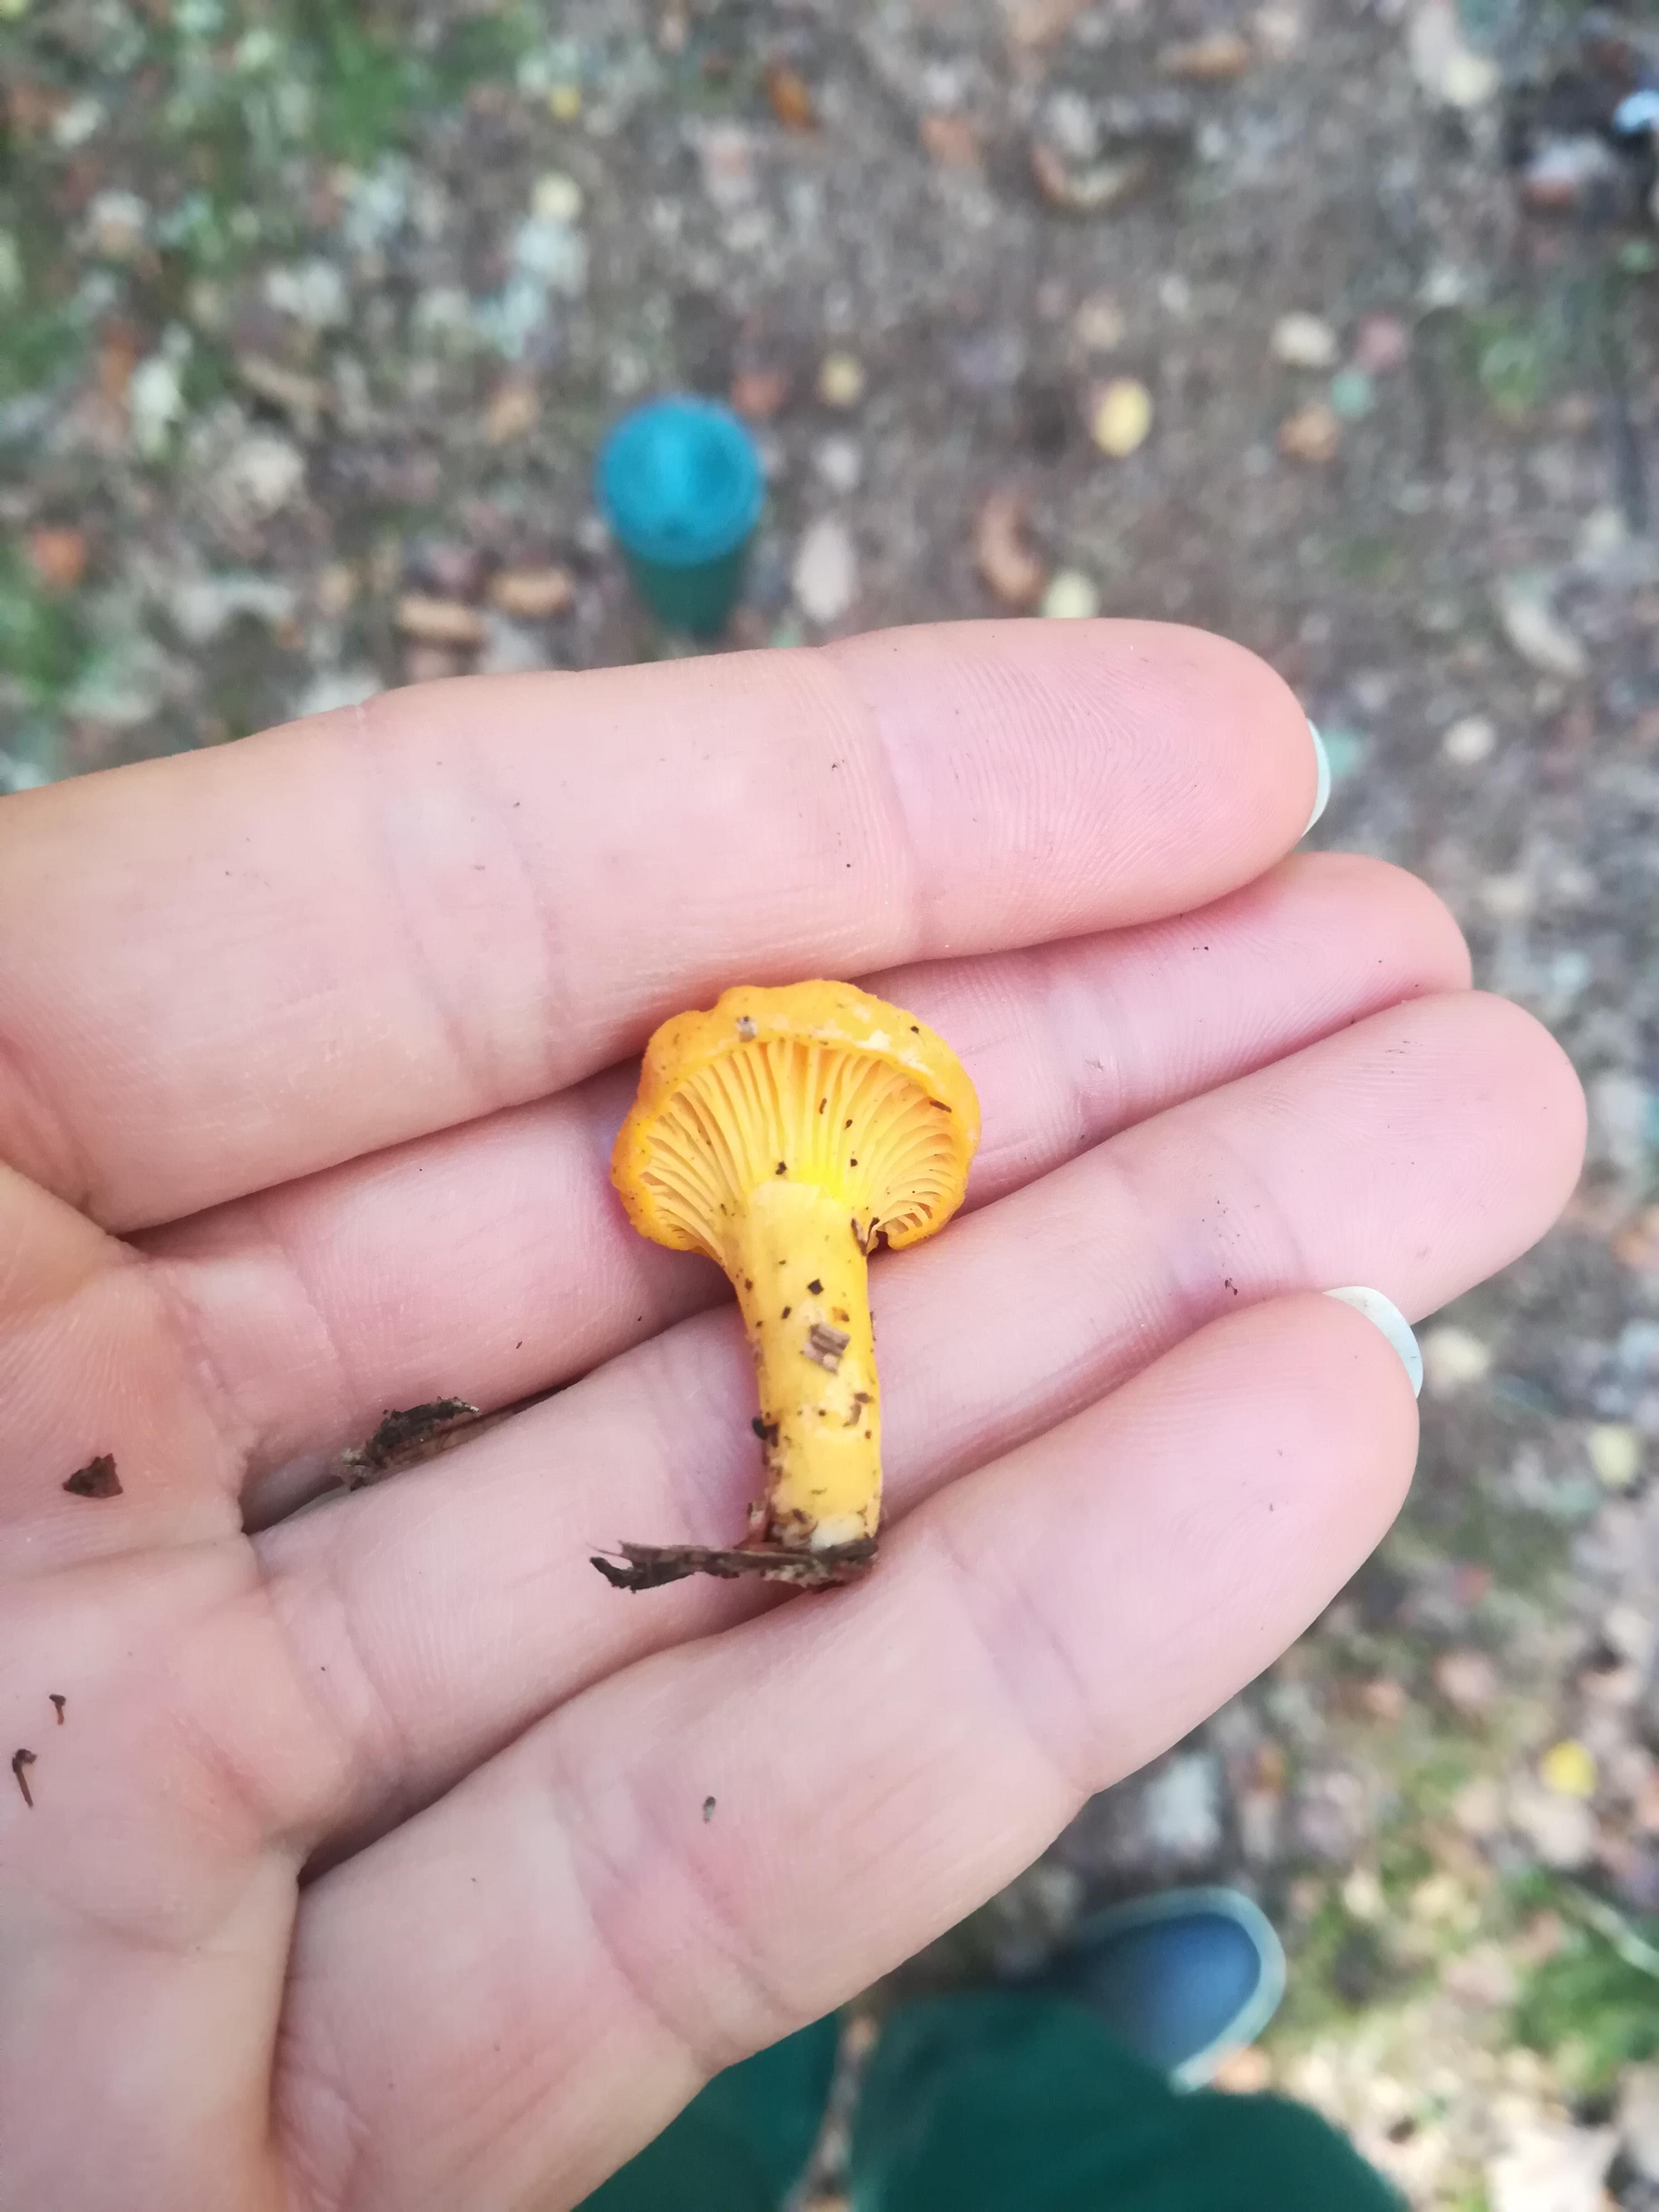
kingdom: Fungi
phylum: Basidiomycota
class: Agaricomycetes
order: Cantharellales
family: Hydnaceae
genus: Cantharellus
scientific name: Cantharellus cibarius
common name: almindelig kantarel
